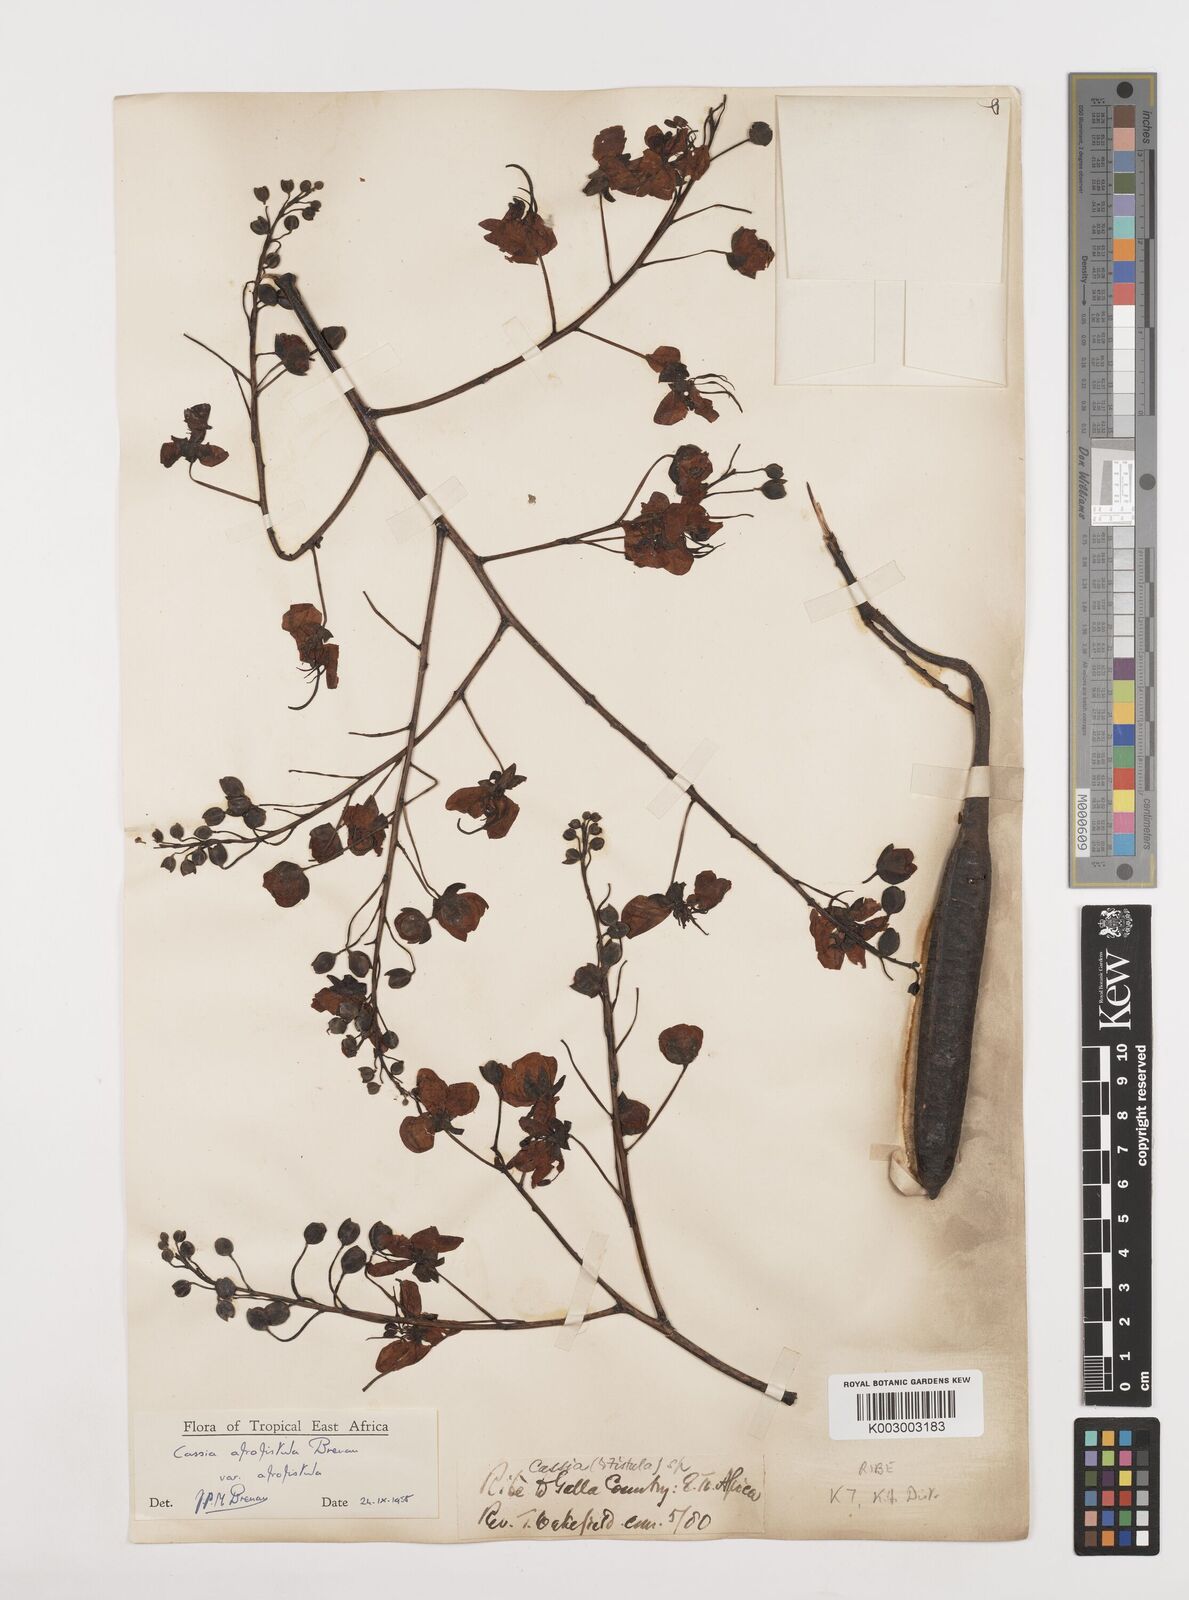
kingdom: Plantae
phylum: Tracheophyta
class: Magnoliopsida
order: Fabales
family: Fabaceae
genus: Cassia
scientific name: Cassia afrofistula
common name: Kenyan shower
